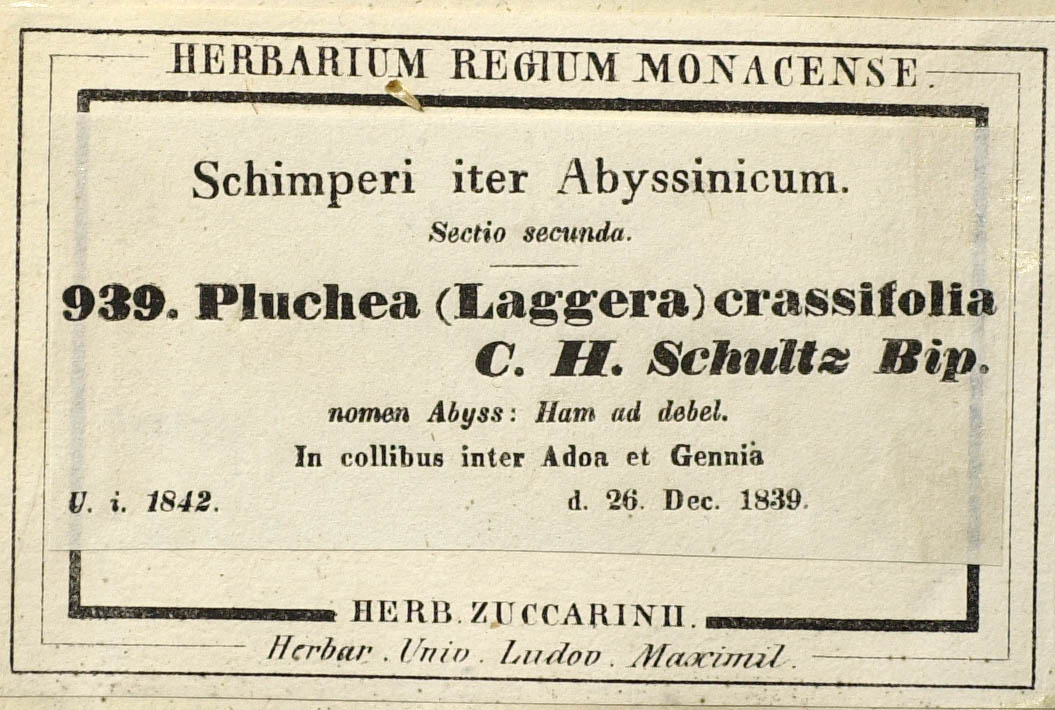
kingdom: Plantae
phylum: Tracheophyta
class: Magnoliopsida
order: Asterales
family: Asteraceae
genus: Laggera
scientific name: Laggera crassifolia
